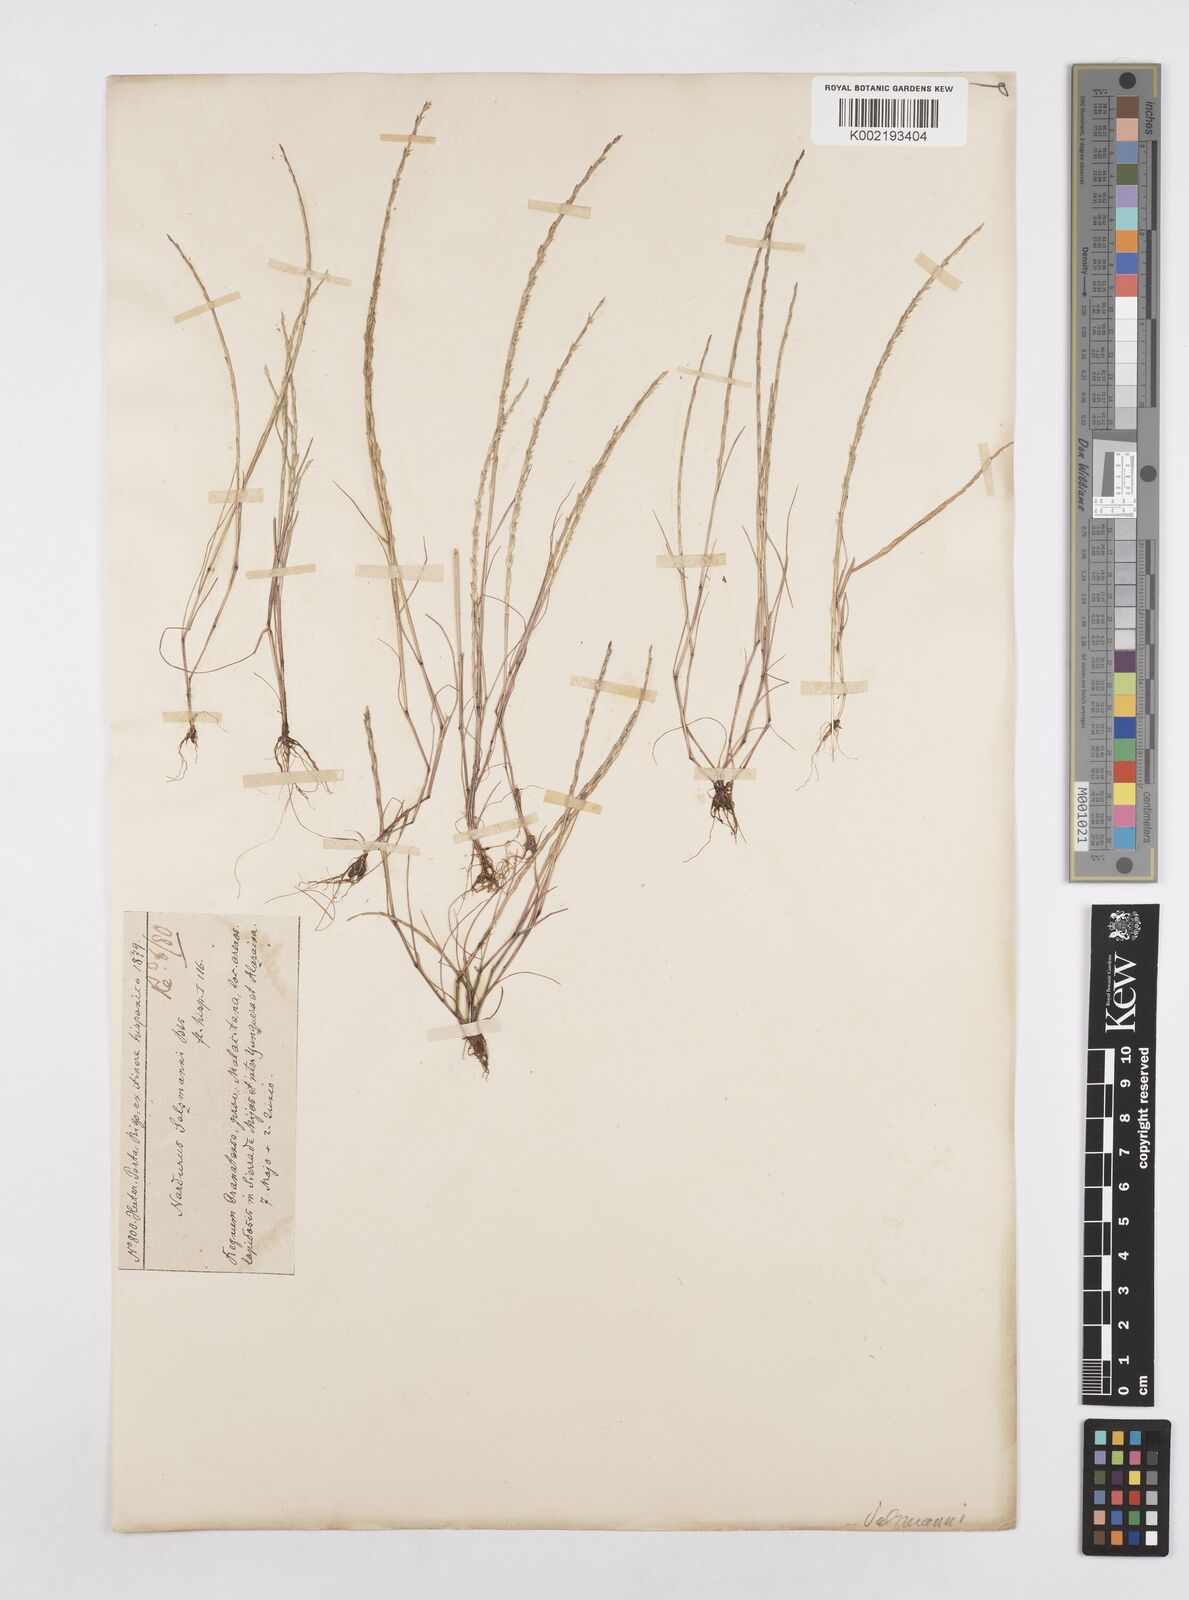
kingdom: Plantae
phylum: Tracheophyta
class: Liliopsida
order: Poales
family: Poaceae
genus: Festuca
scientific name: Festuca salzmannii
